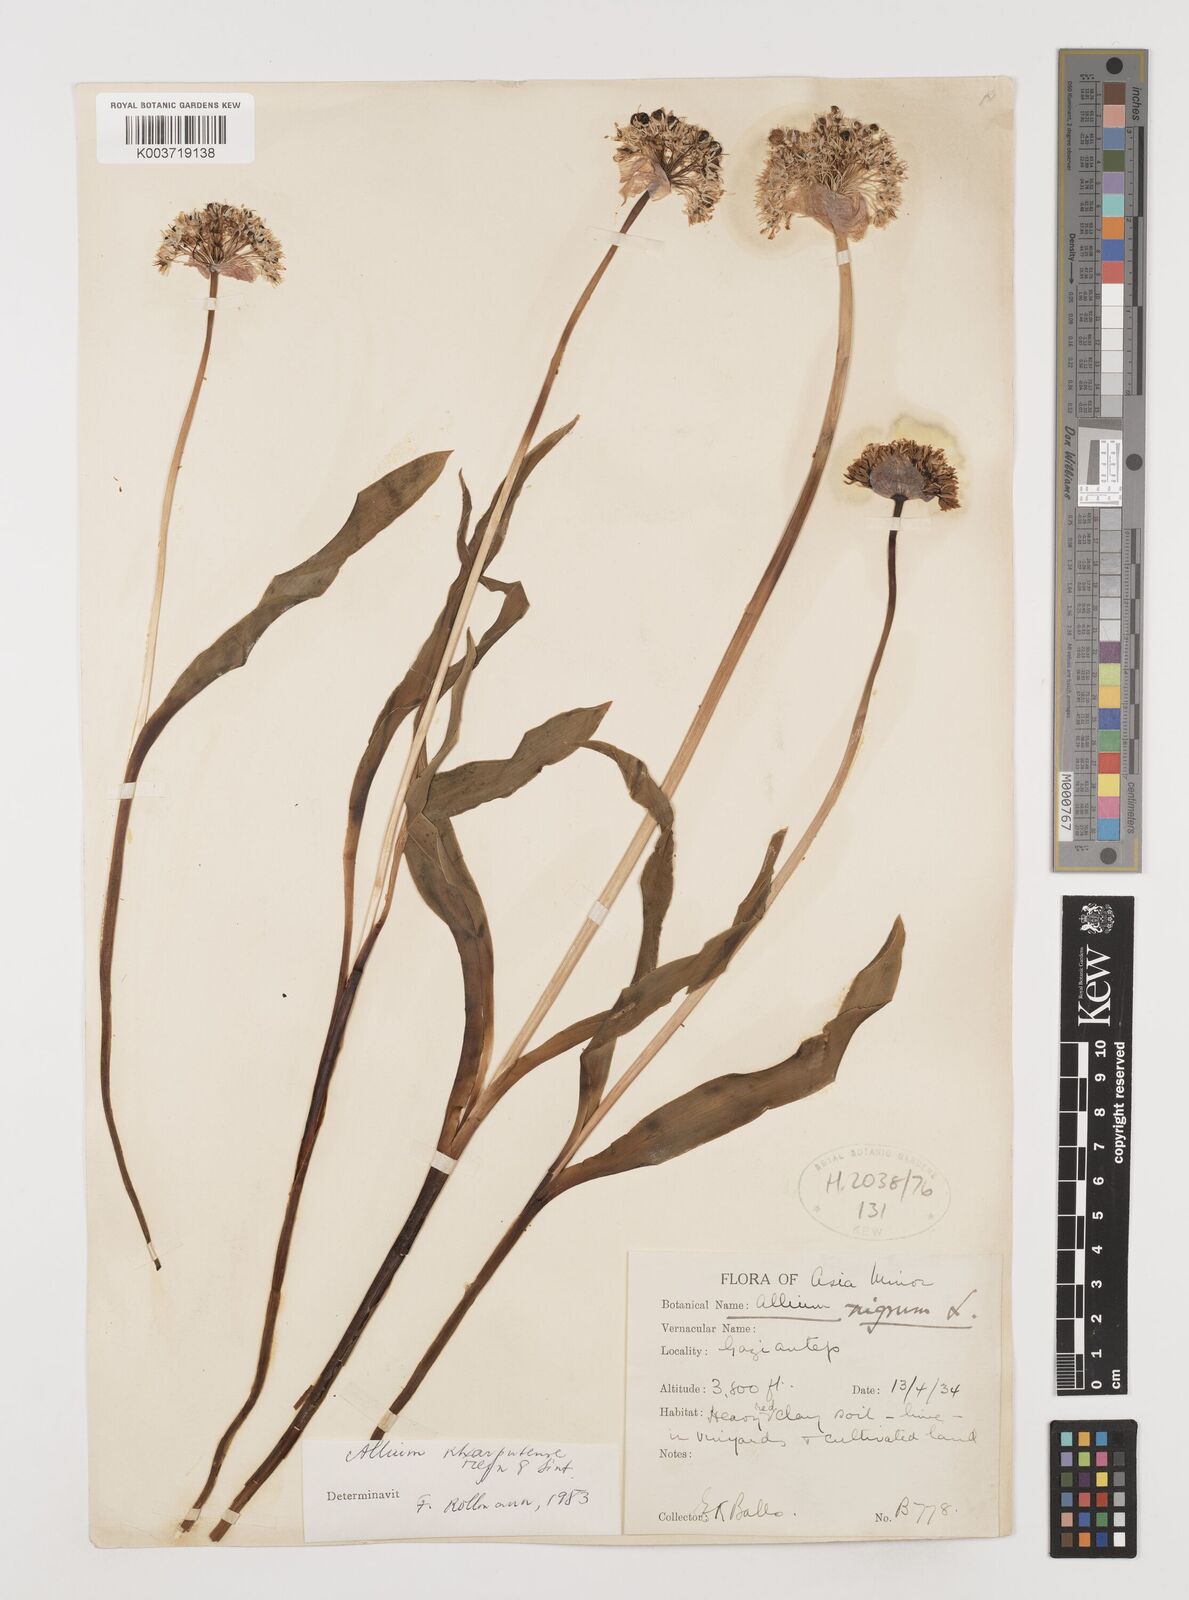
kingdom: Plantae
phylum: Tracheophyta
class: Liliopsida
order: Asparagales
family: Amaryllidaceae
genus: Allium
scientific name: Allium kharputense
